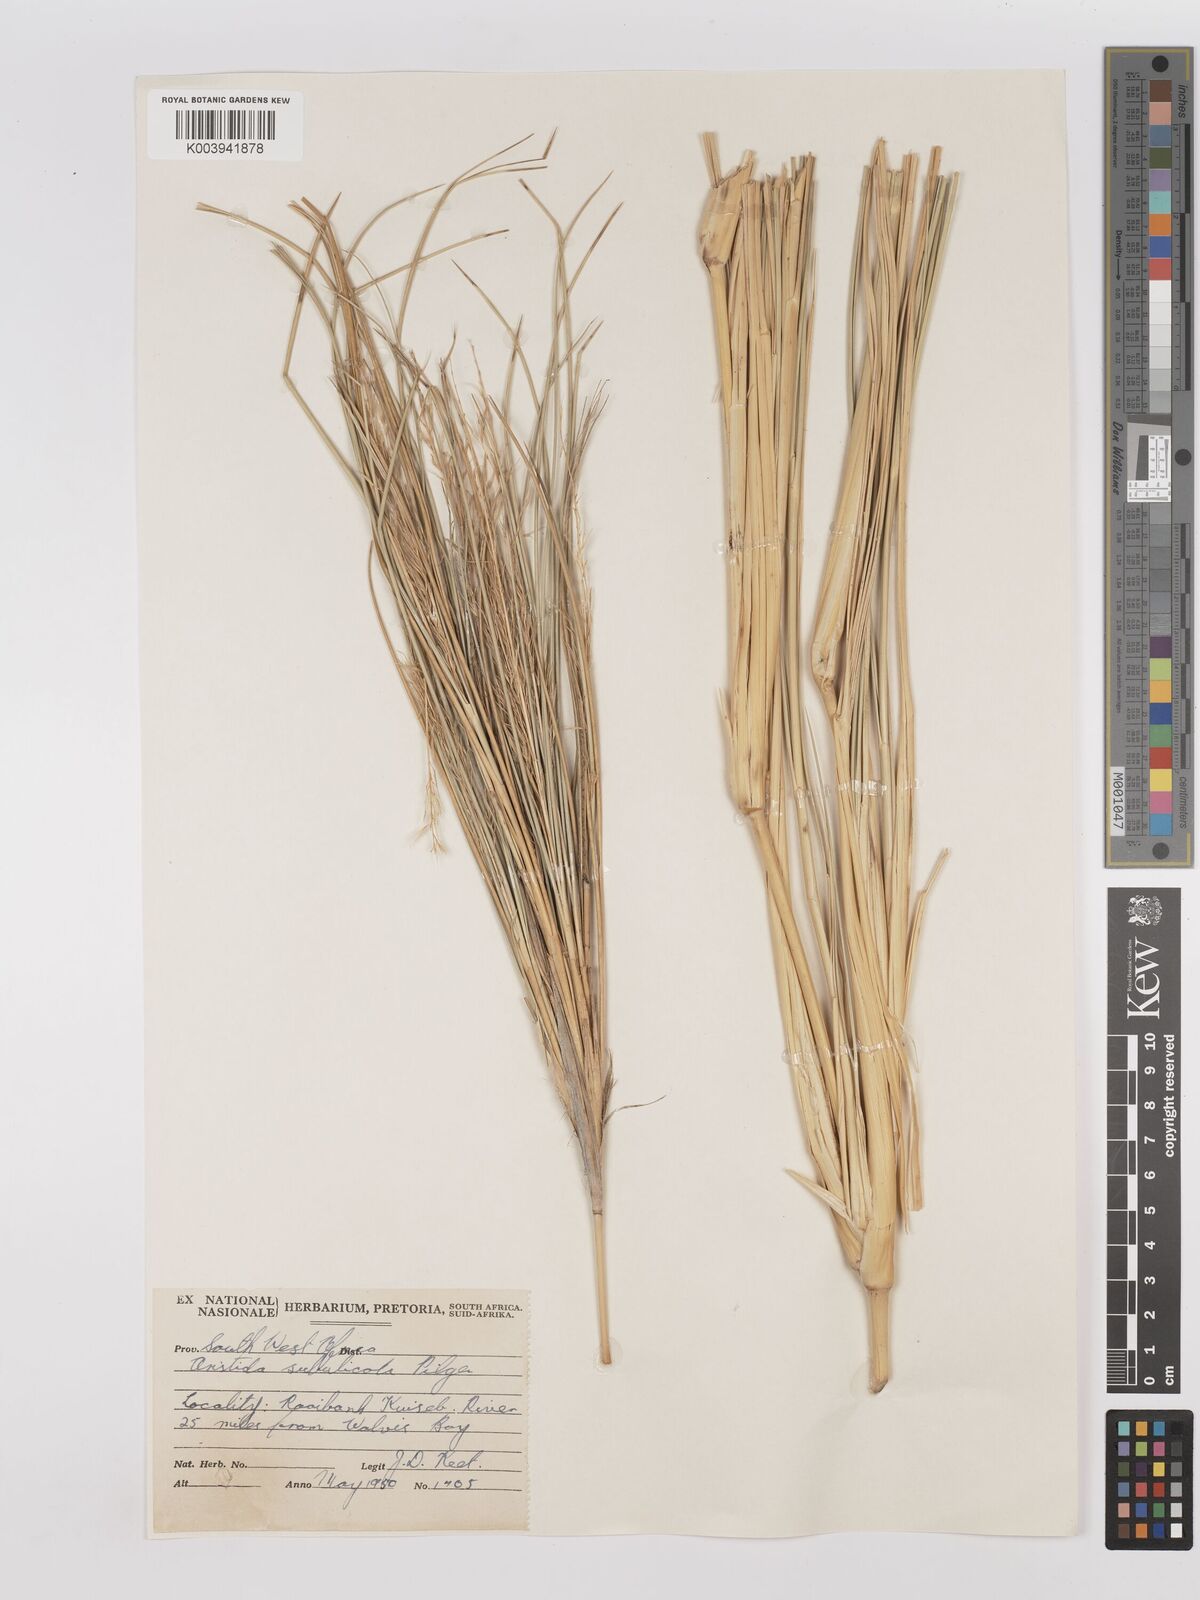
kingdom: Plantae
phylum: Tracheophyta
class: Liliopsida
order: Poales
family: Poaceae
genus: Stipagrostis
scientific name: Stipagrostis sabulicola
